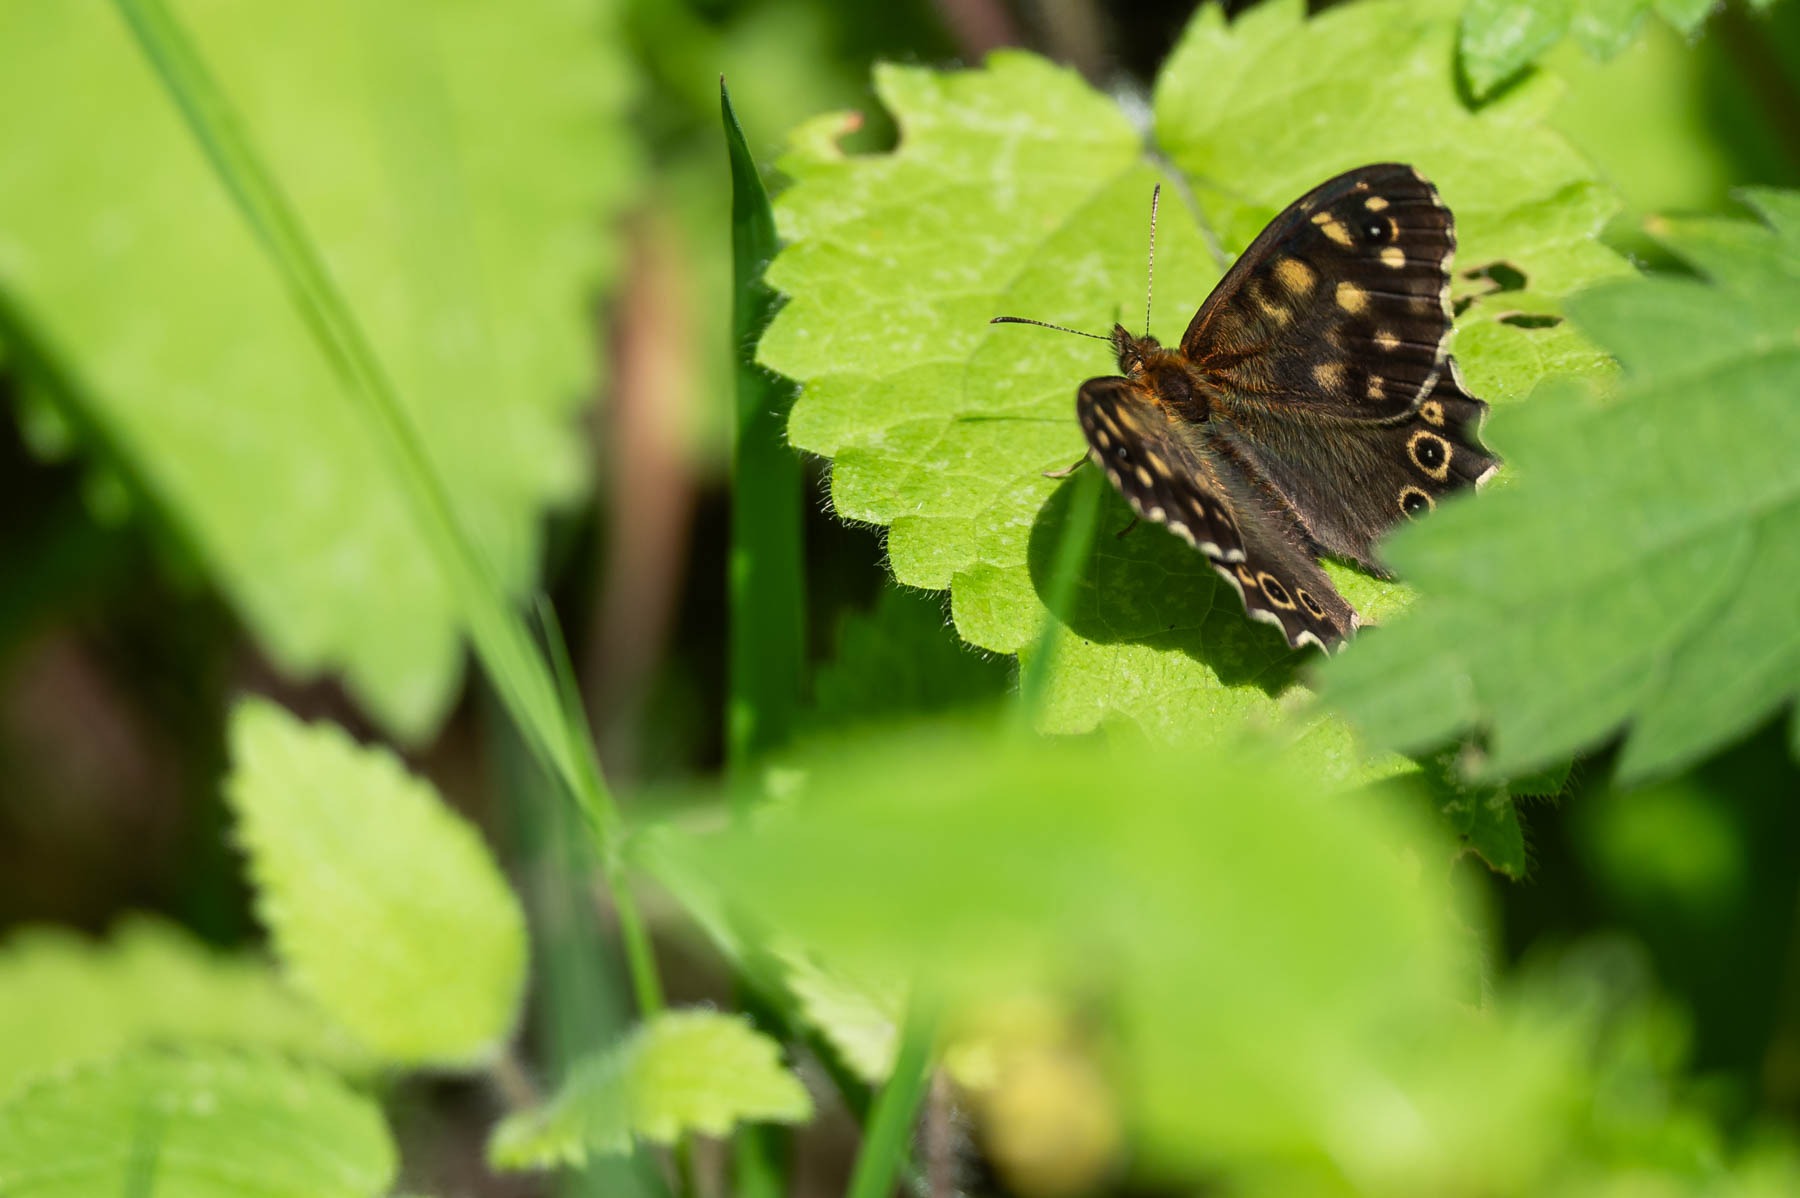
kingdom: Animalia
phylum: Arthropoda
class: Insecta
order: Lepidoptera
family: Nymphalidae
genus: Pararge
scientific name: Pararge aegeria
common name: Skovrandøje
